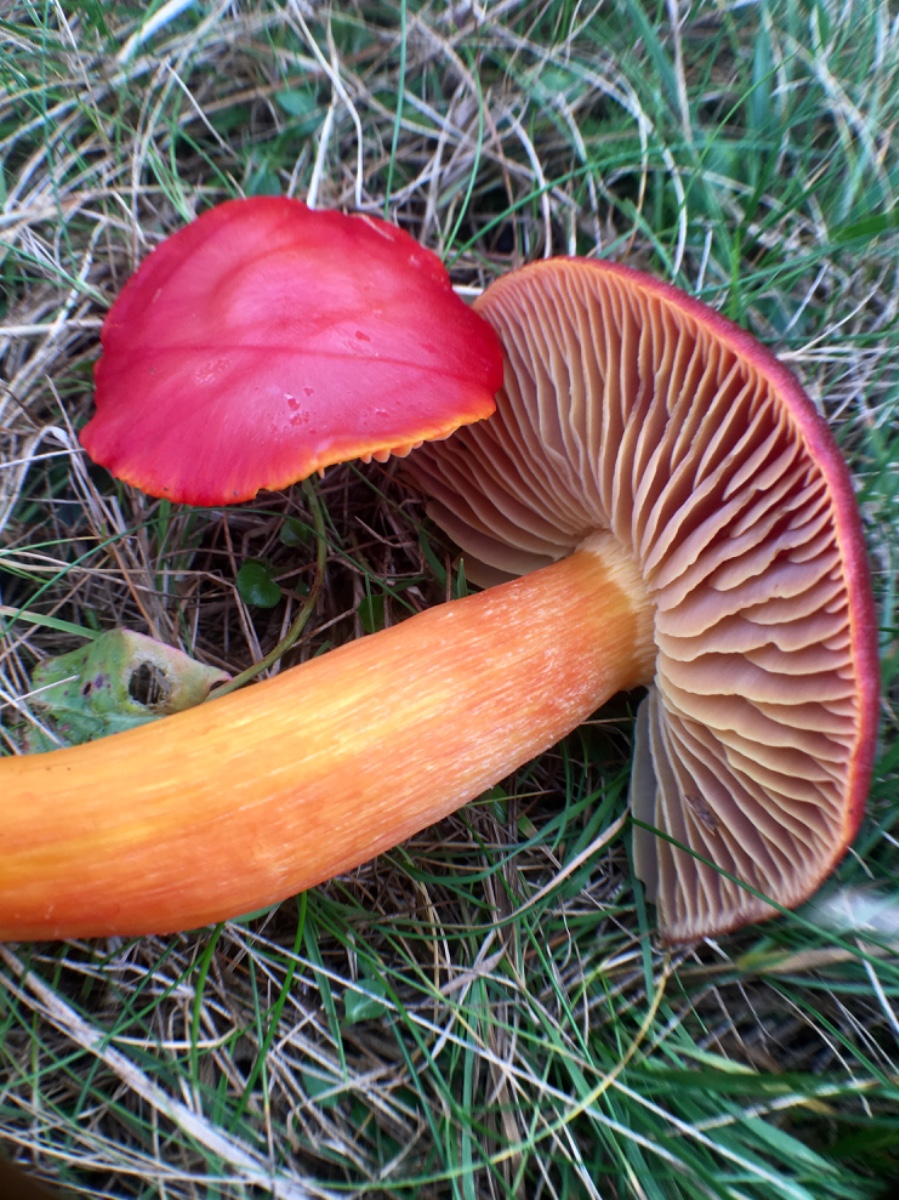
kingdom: Fungi
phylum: Basidiomycota
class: Agaricomycetes
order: Agaricales
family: Hygrophoraceae
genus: Hygrocybe
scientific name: Hygrocybe punicea
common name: skarlagen-vokshat
